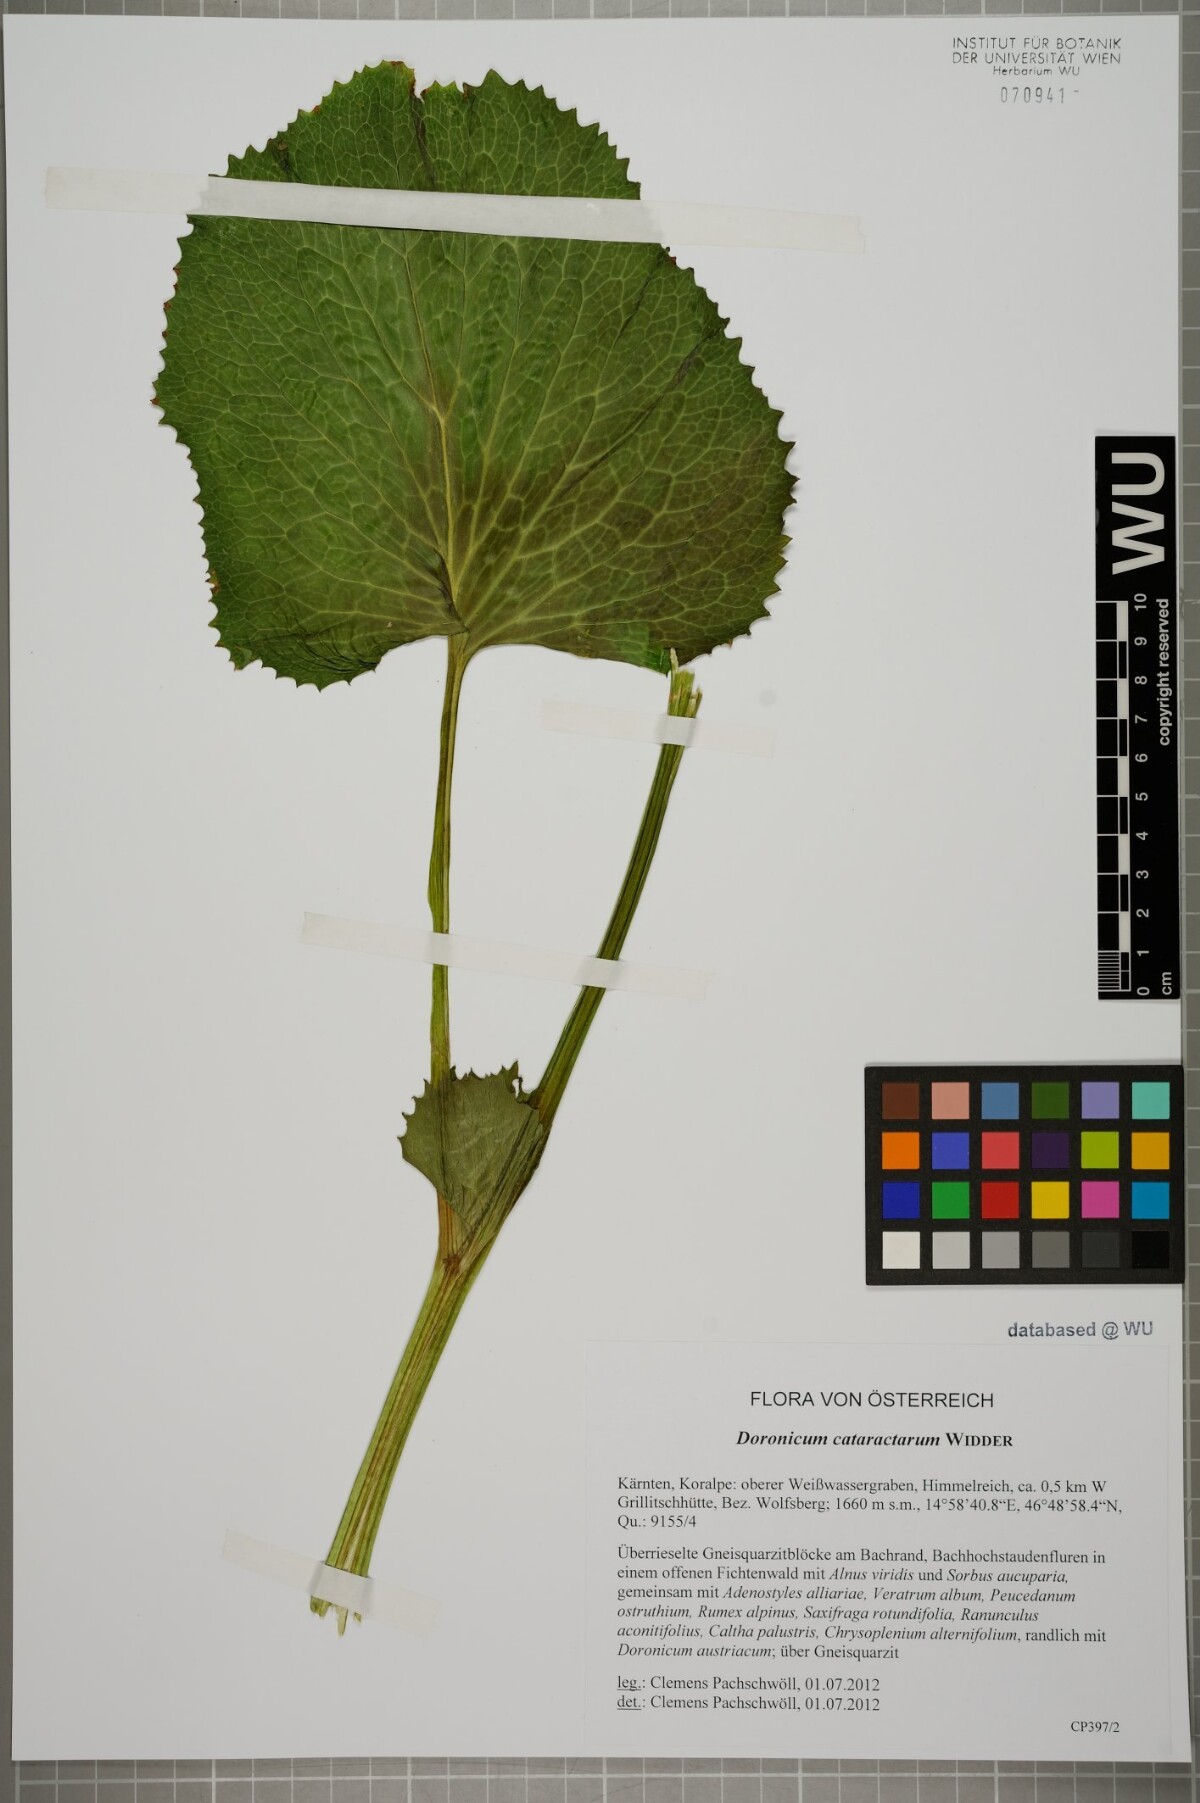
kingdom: Plantae
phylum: Tracheophyta
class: Magnoliopsida
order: Asterales
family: Asteraceae
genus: Doronicum
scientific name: Doronicum cataractarum
